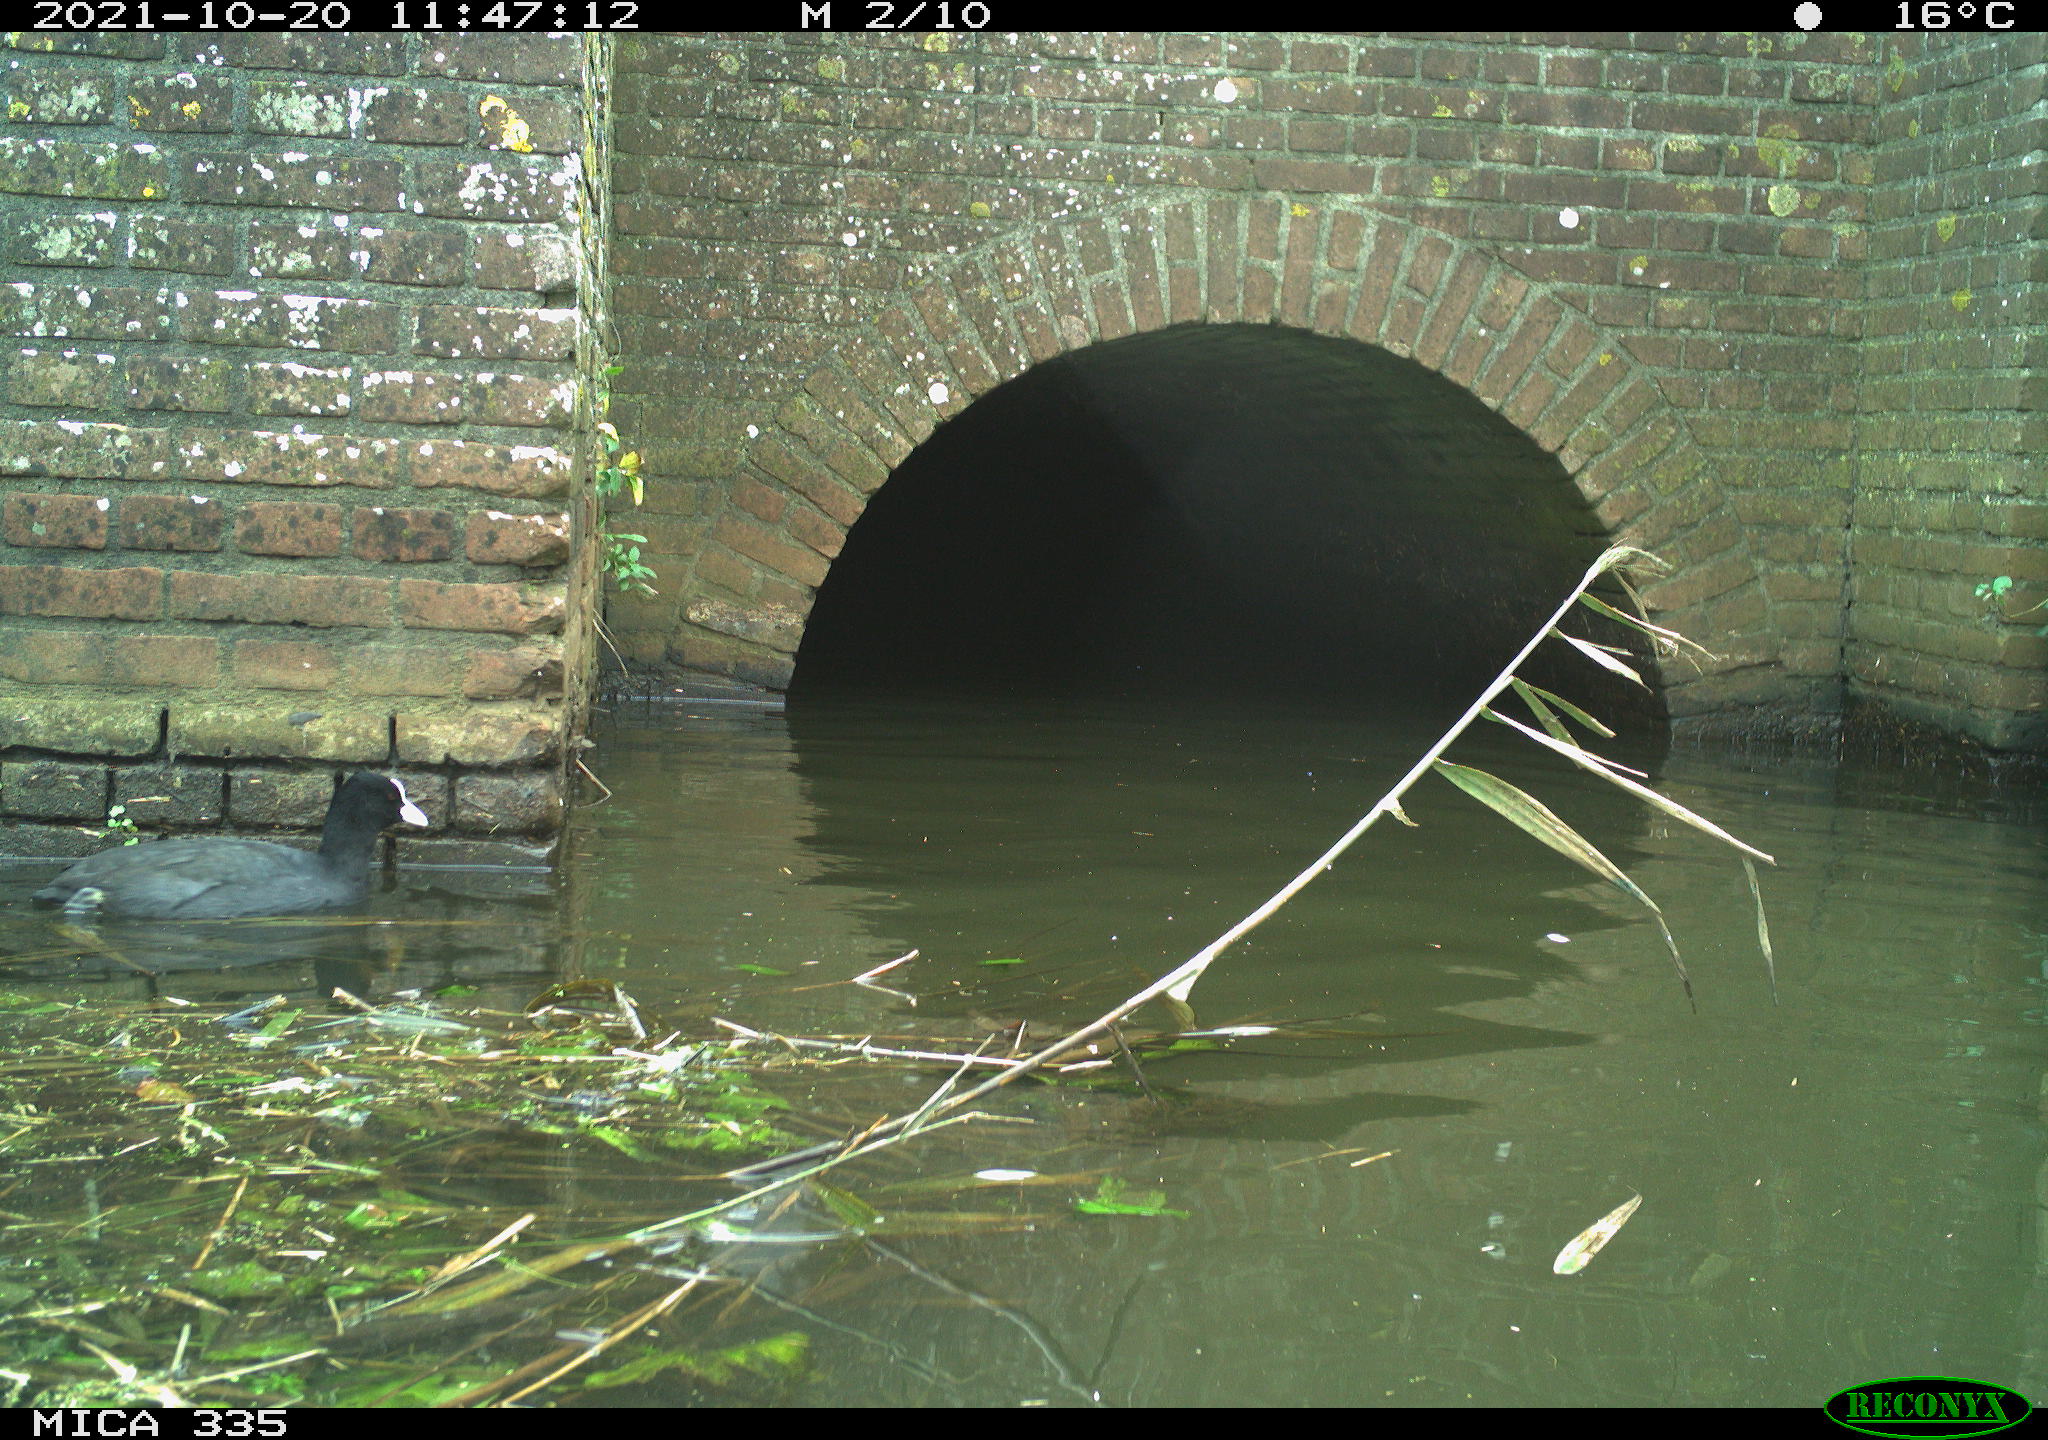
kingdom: Animalia
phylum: Chordata
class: Aves
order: Gruiformes
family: Rallidae
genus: Fulica
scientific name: Fulica atra
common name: Eurasian coot
